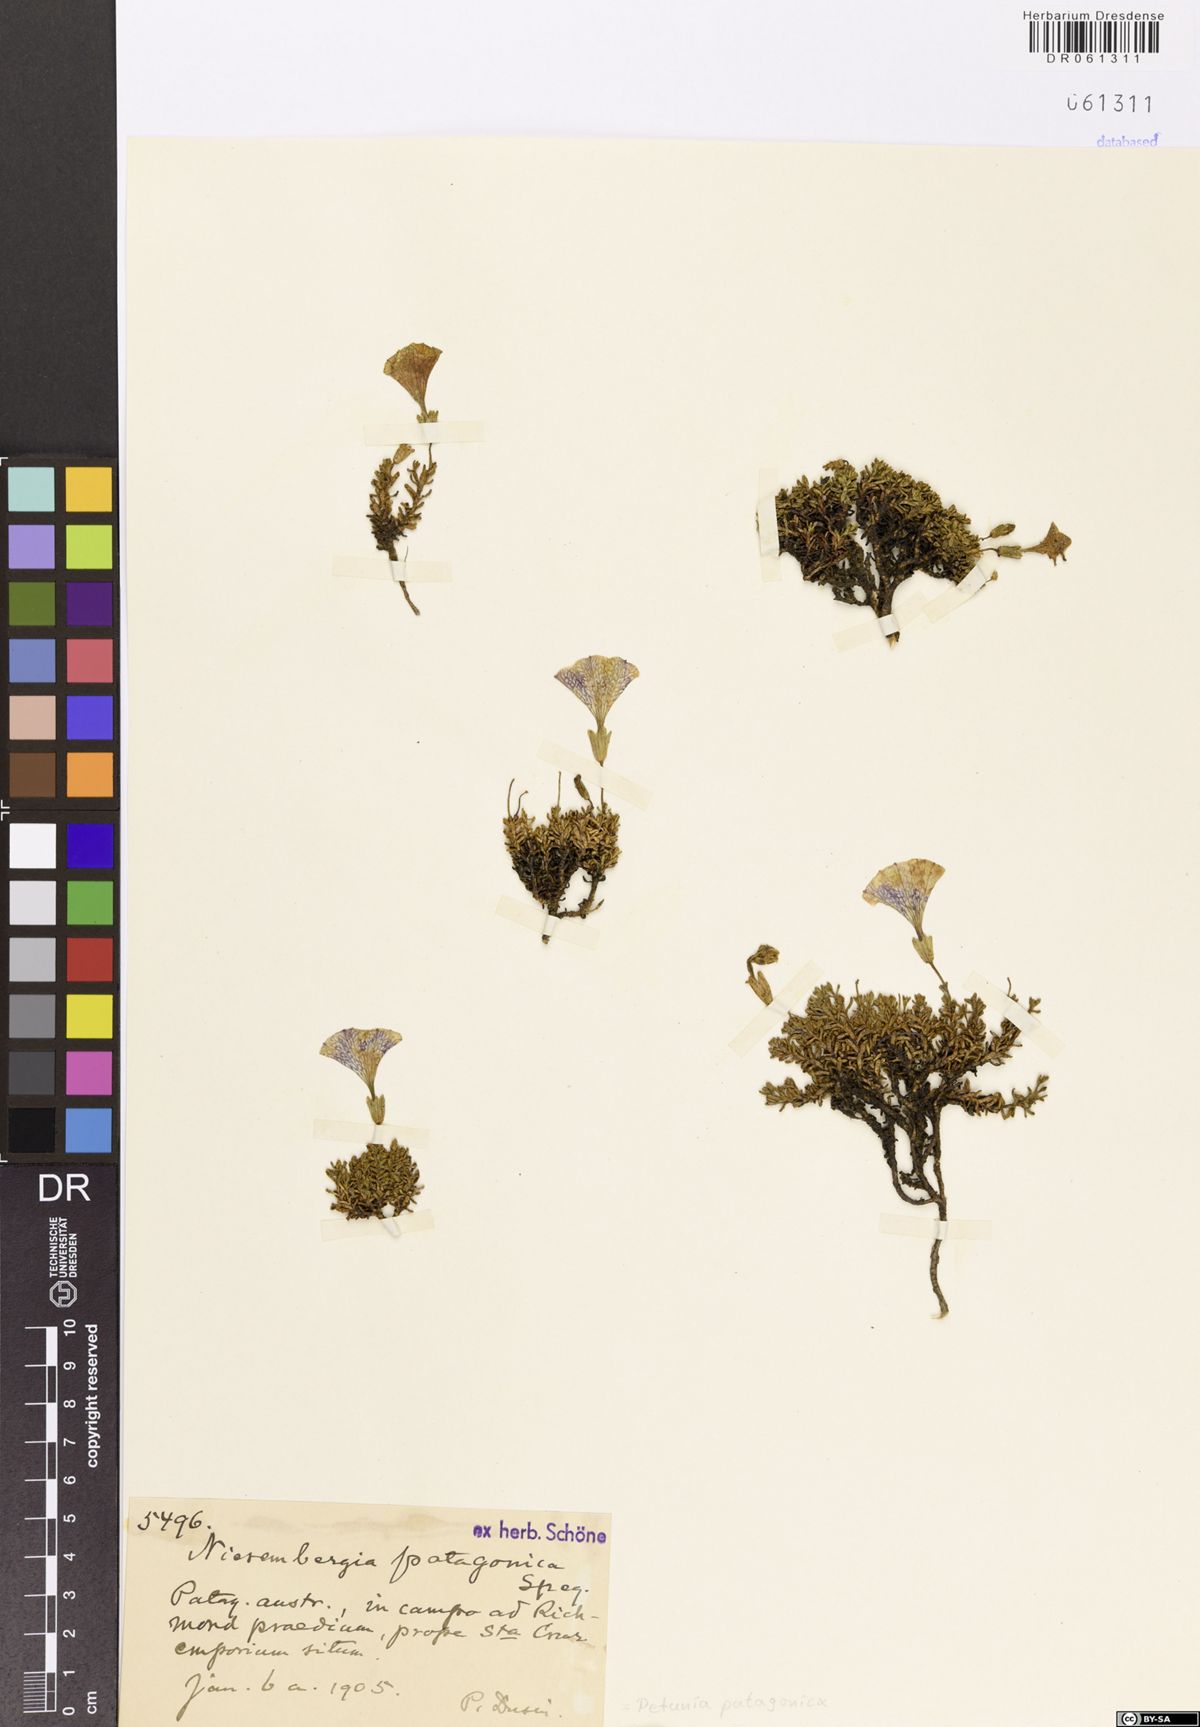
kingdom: Plantae
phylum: Tracheophyta
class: Magnoliopsida
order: Solanales
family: Solanaceae
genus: Fabiana
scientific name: Fabiana australis
